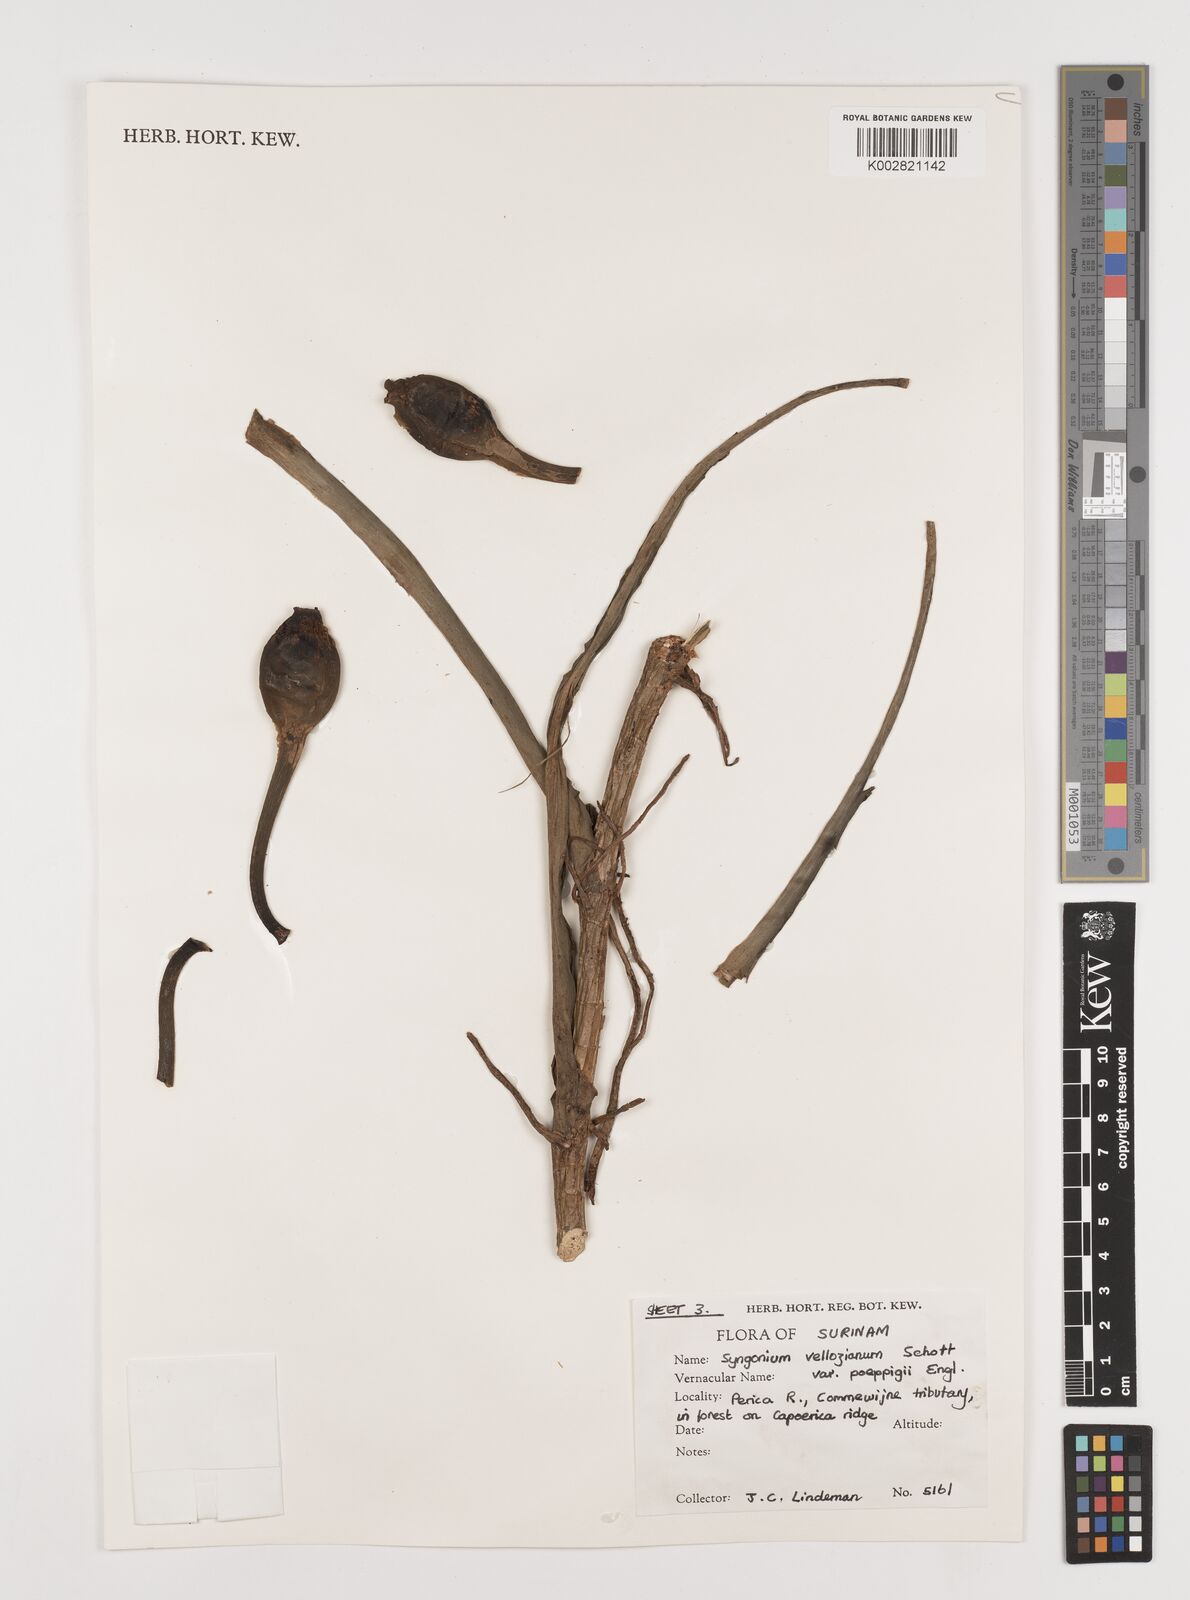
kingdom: Plantae
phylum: Tracheophyta
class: Liliopsida
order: Alismatales
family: Araceae
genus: Syngonium
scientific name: Syngonium podophyllum
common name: American evergreen
